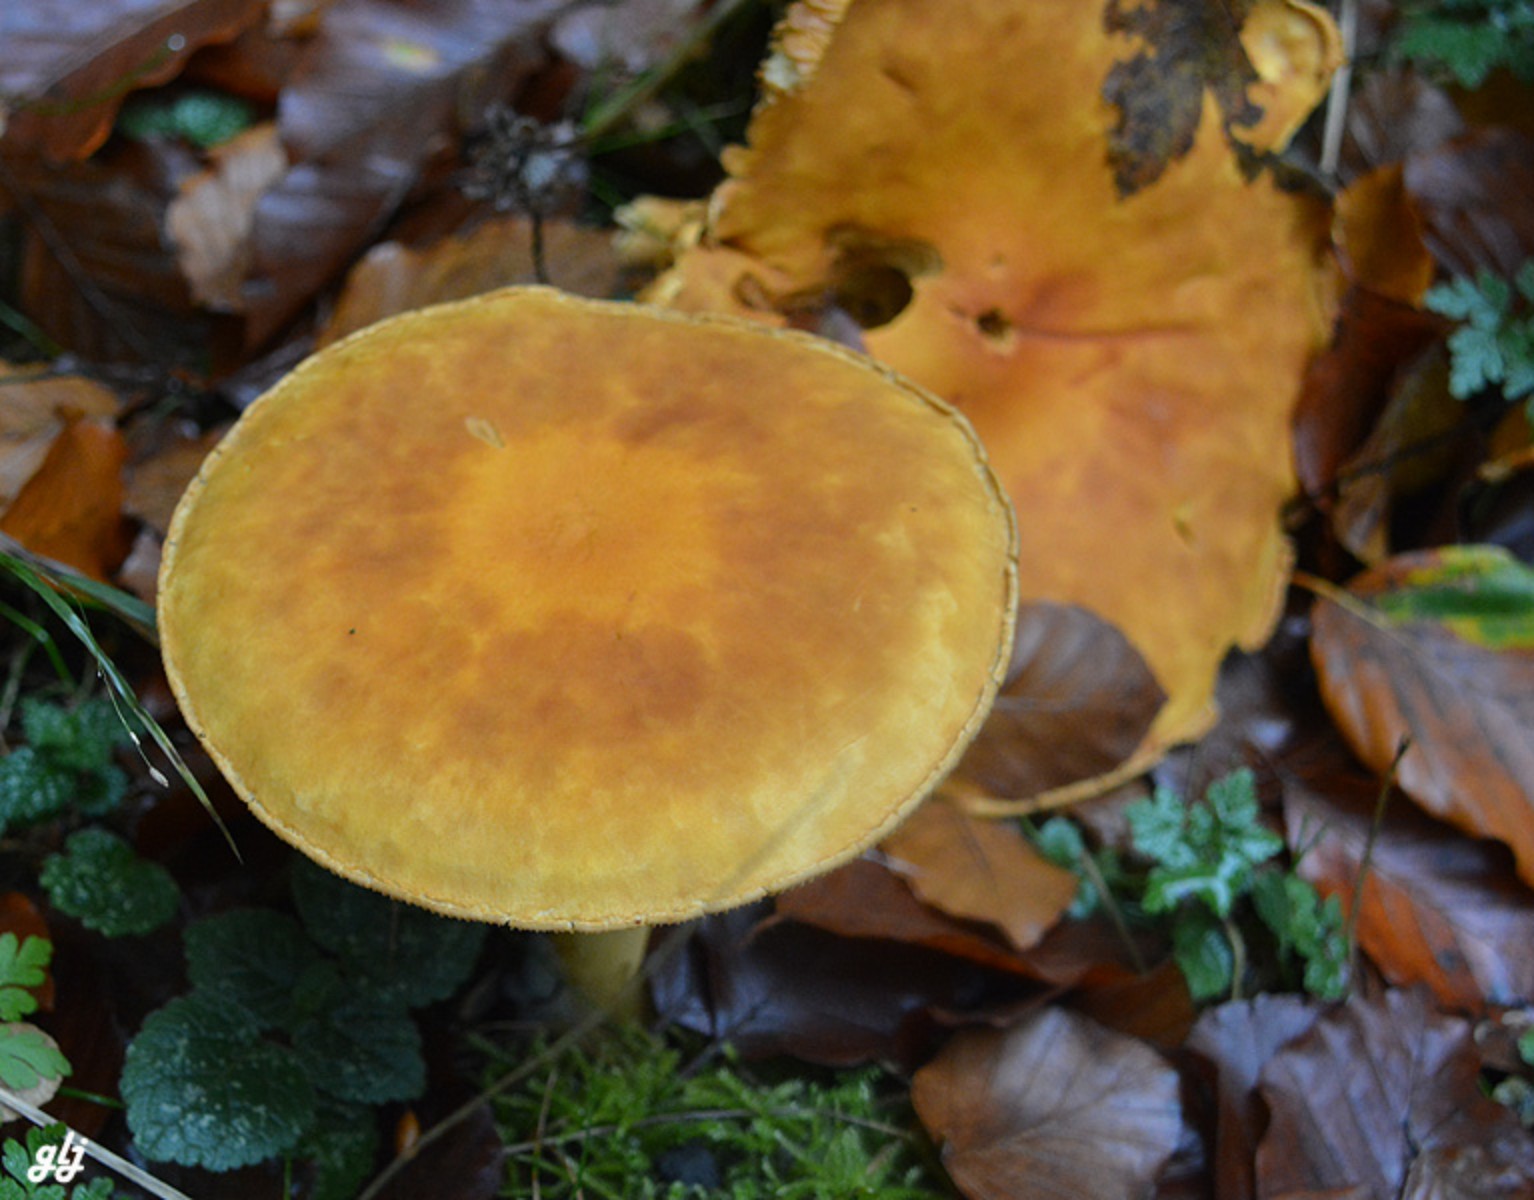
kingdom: Fungi
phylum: Basidiomycota
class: Agaricomycetes
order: Agaricales
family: Tricholomataceae
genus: Phaeolepiota
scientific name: Phaeolepiota aurea
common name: gyldenhat
